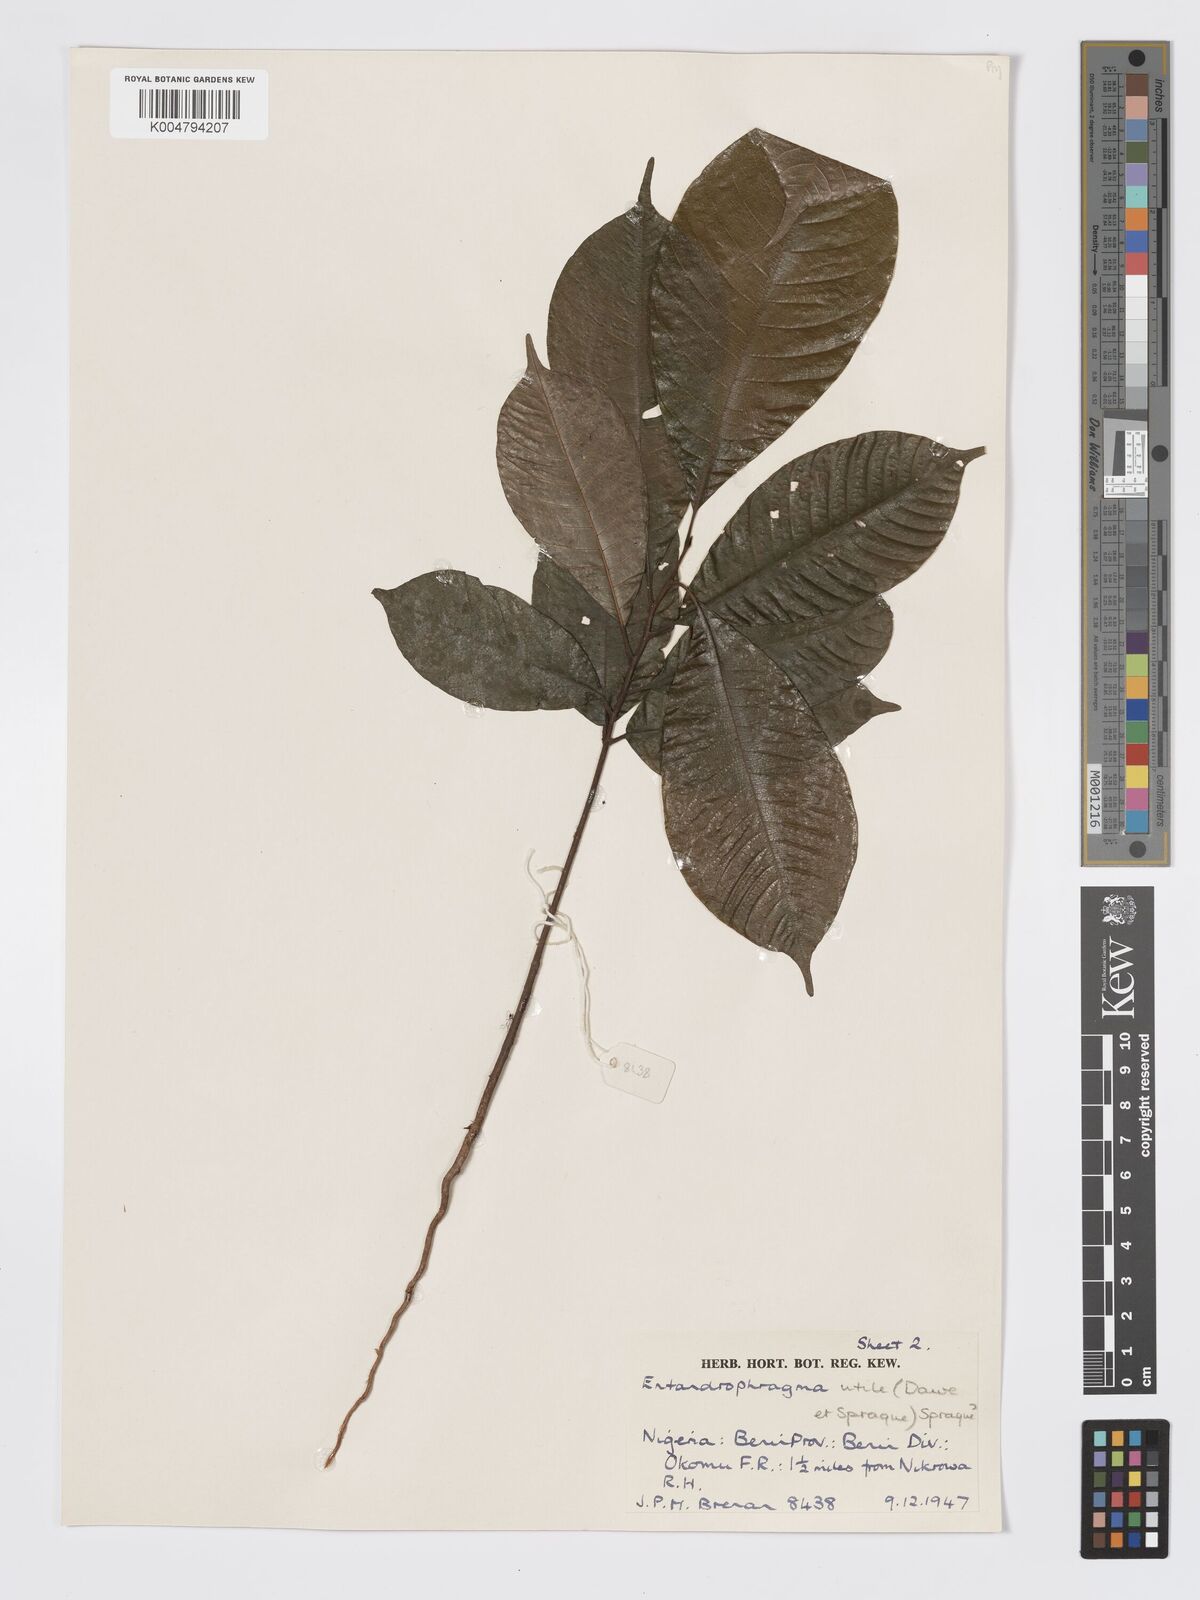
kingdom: Plantae
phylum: Tracheophyta
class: Magnoliopsida
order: Sapindales
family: Meliaceae
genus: Entandrophragma
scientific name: Entandrophragma candollei
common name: Cedar kokoti
